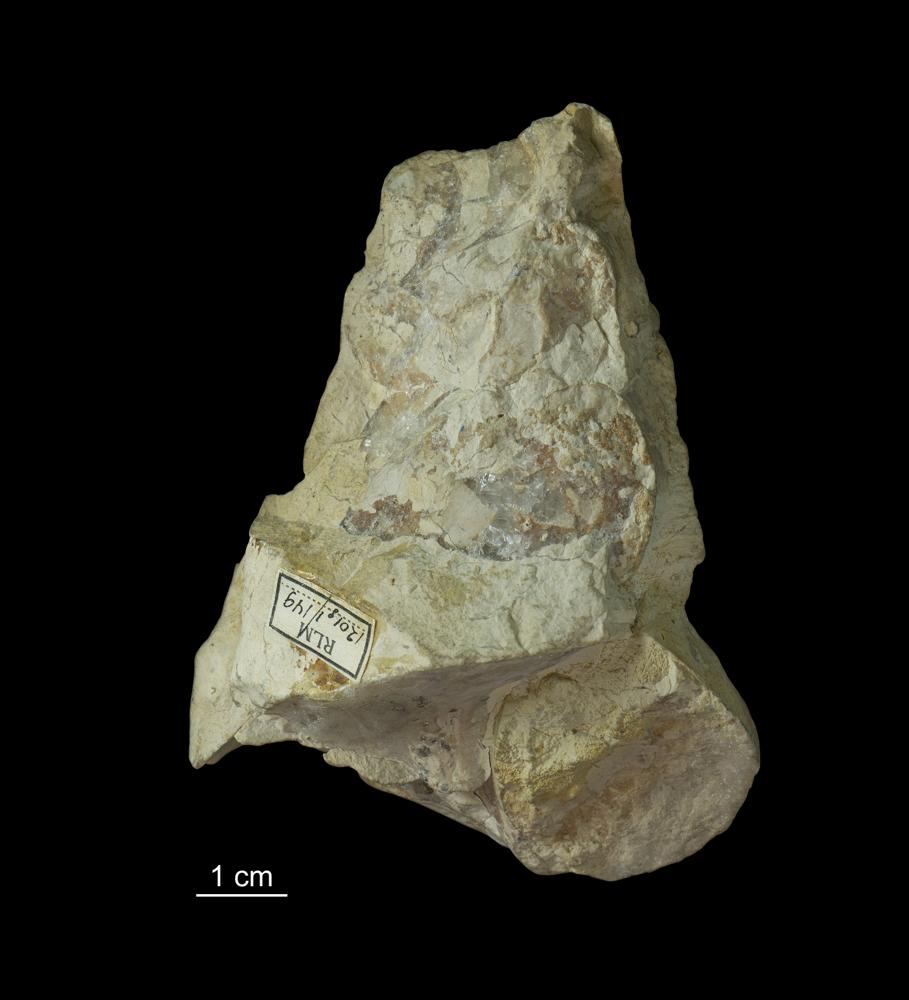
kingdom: Animalia
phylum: Mollusca
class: Gastropoda
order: Pleurotomariida
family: Murchisoniidae
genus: Murchisonia
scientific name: Murchisonia insignis
